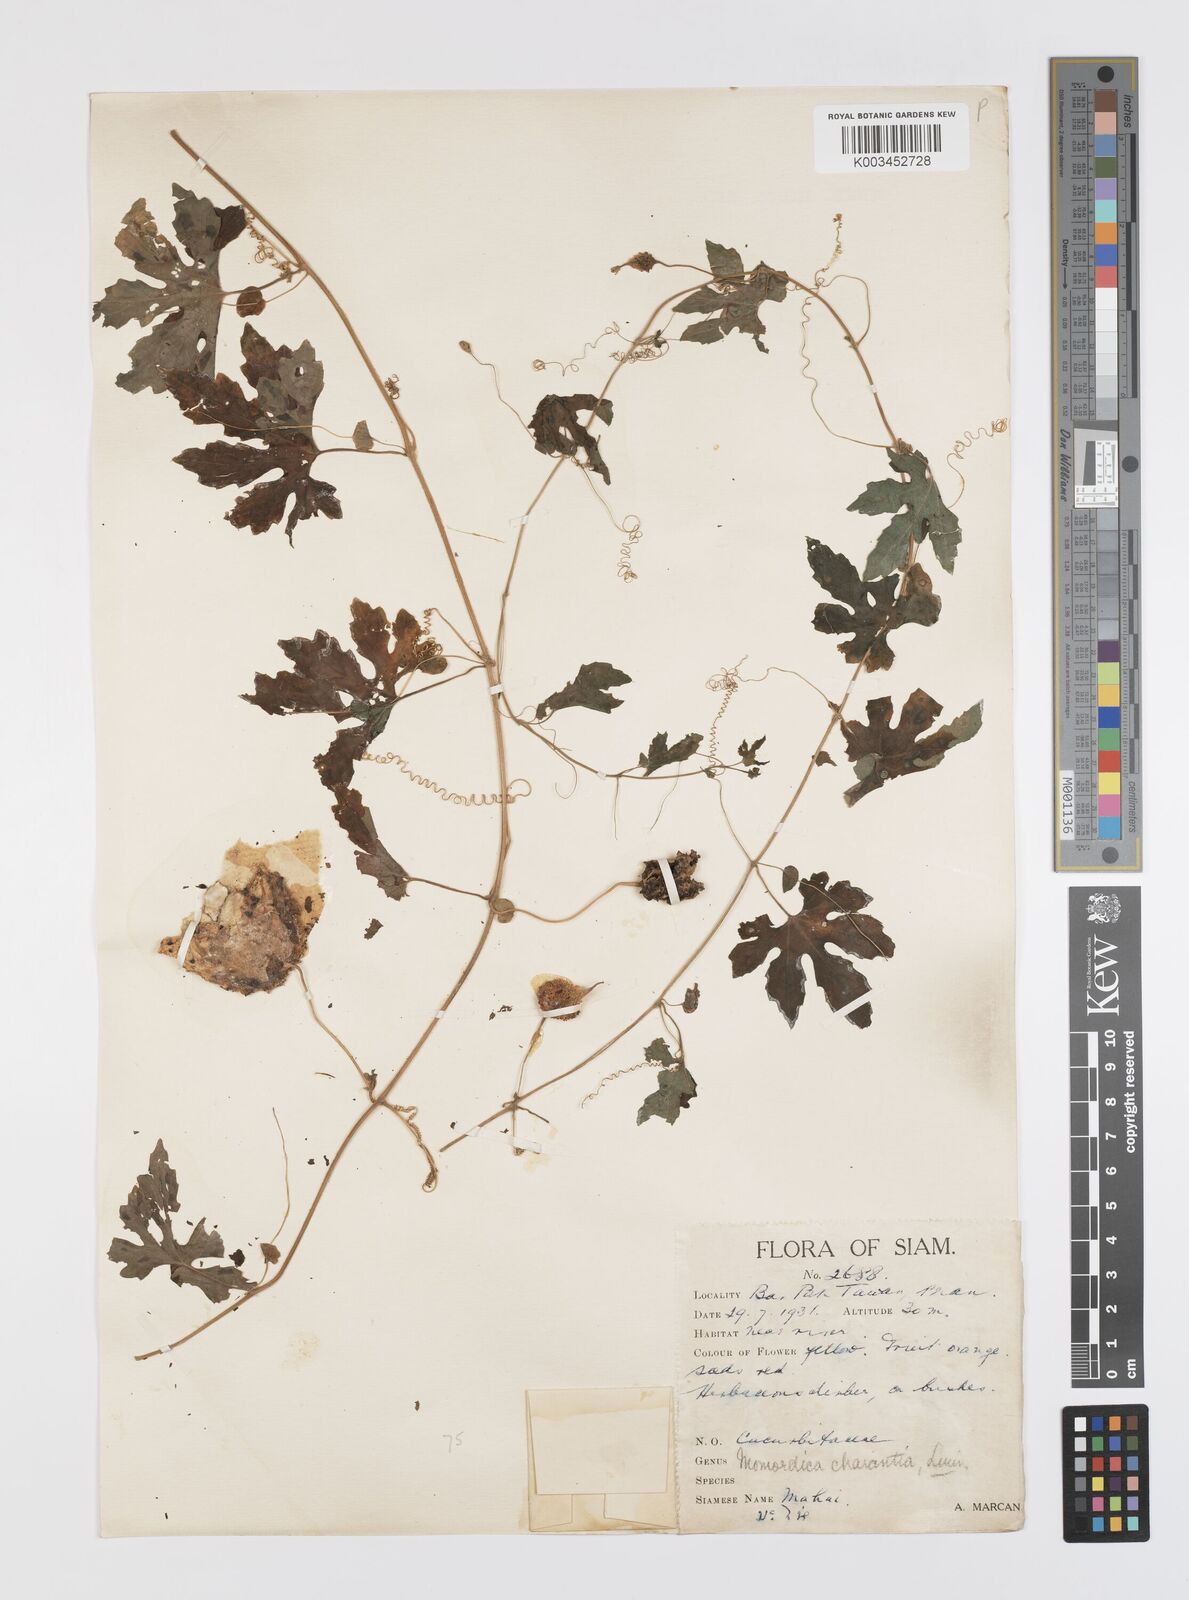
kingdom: Plantae
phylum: Tracheophyta
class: Magnoliopsida
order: Cucurbitales
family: Cucurbitaceae
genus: Momordica
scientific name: Momordica charantia
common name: Balsampear
